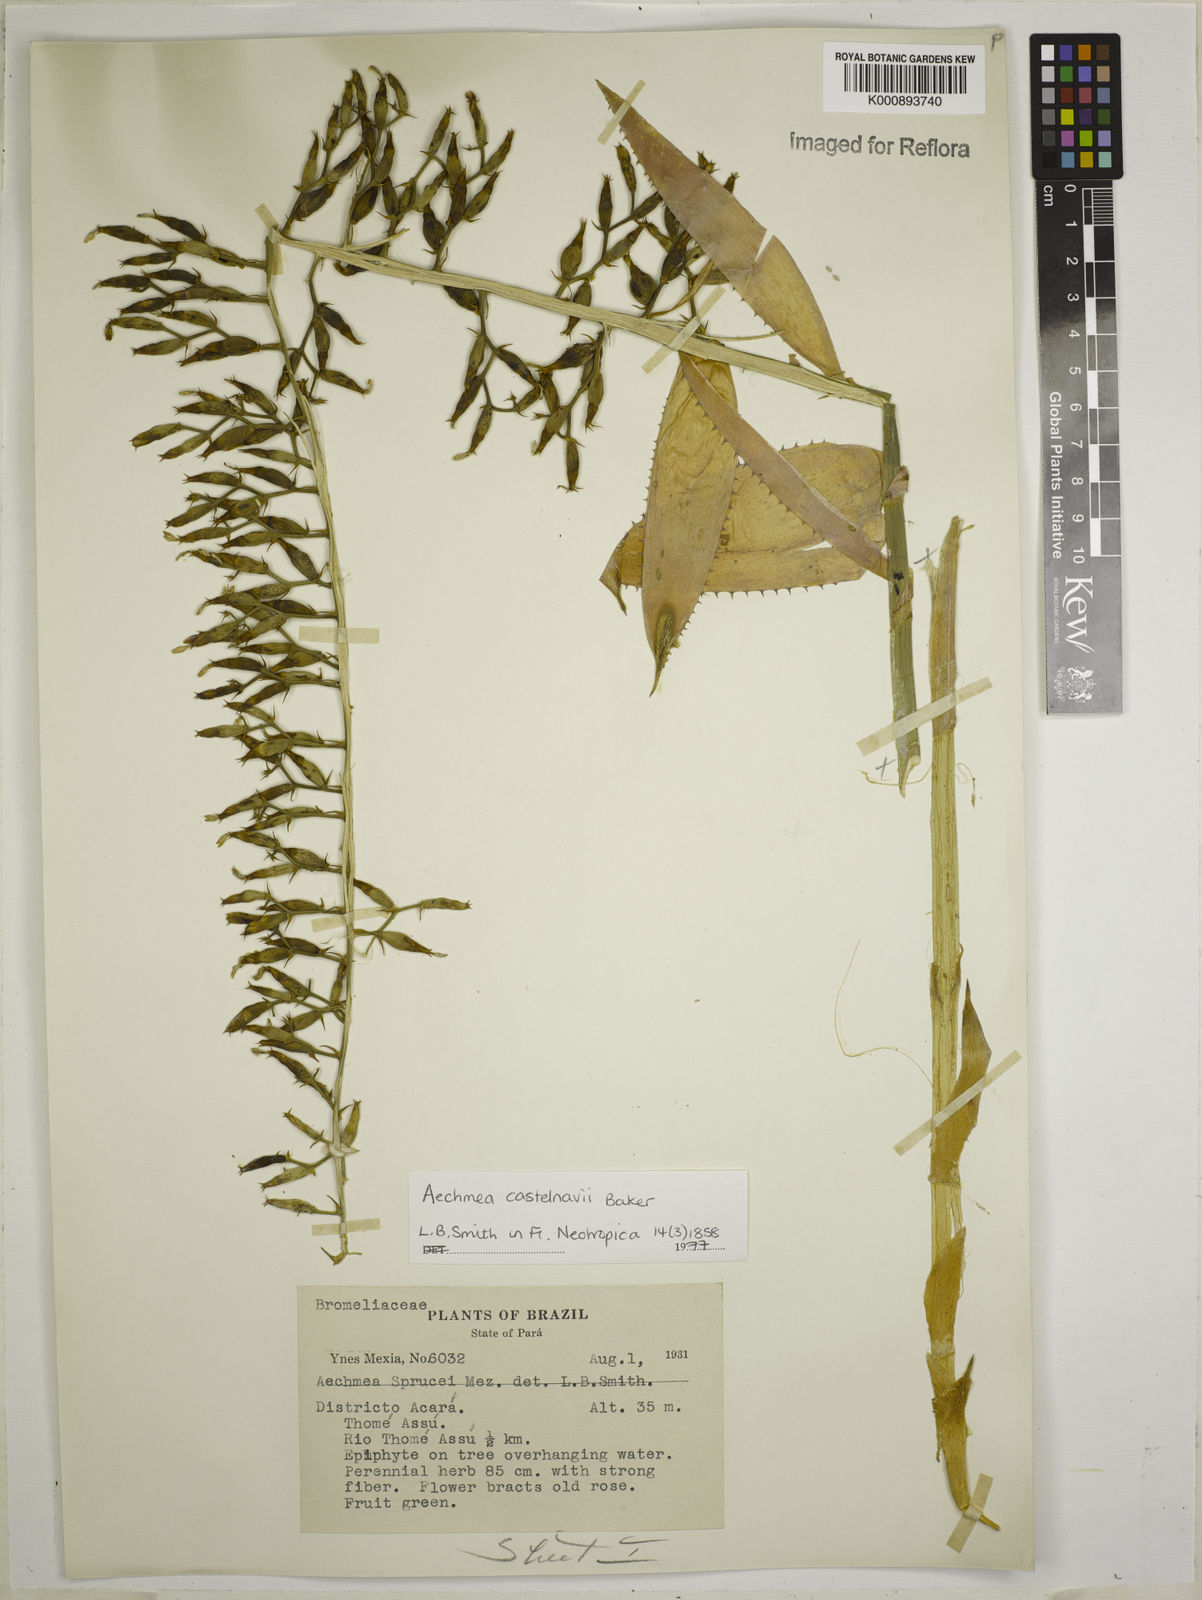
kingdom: Plantae
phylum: Tracheophyta
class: Liliopsida
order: Poales
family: Bromeliaceae
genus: Aechmea
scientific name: Aechmea castelnavii
